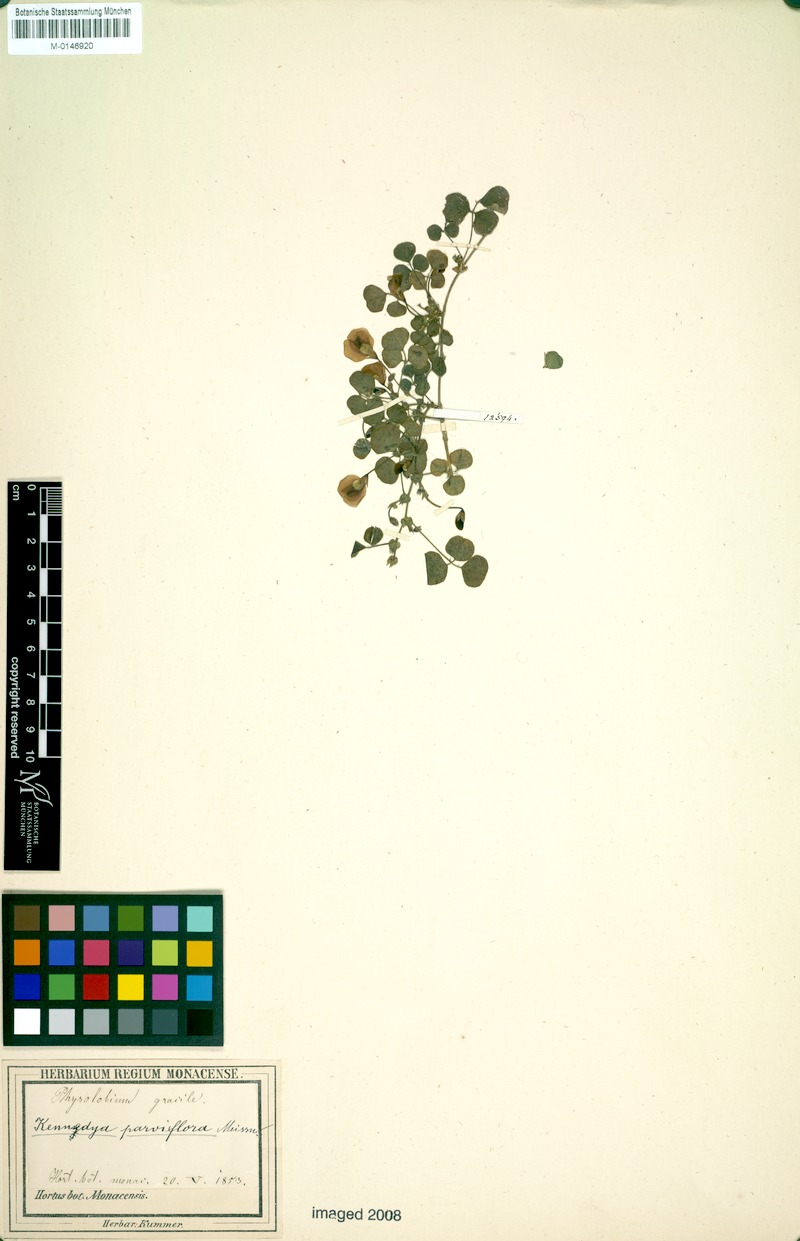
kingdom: Plantae
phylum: Tracheophyta
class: Magnoliopsida
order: Fabales
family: Fabaceae
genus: Kennedia
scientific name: Kennedia parviflora
